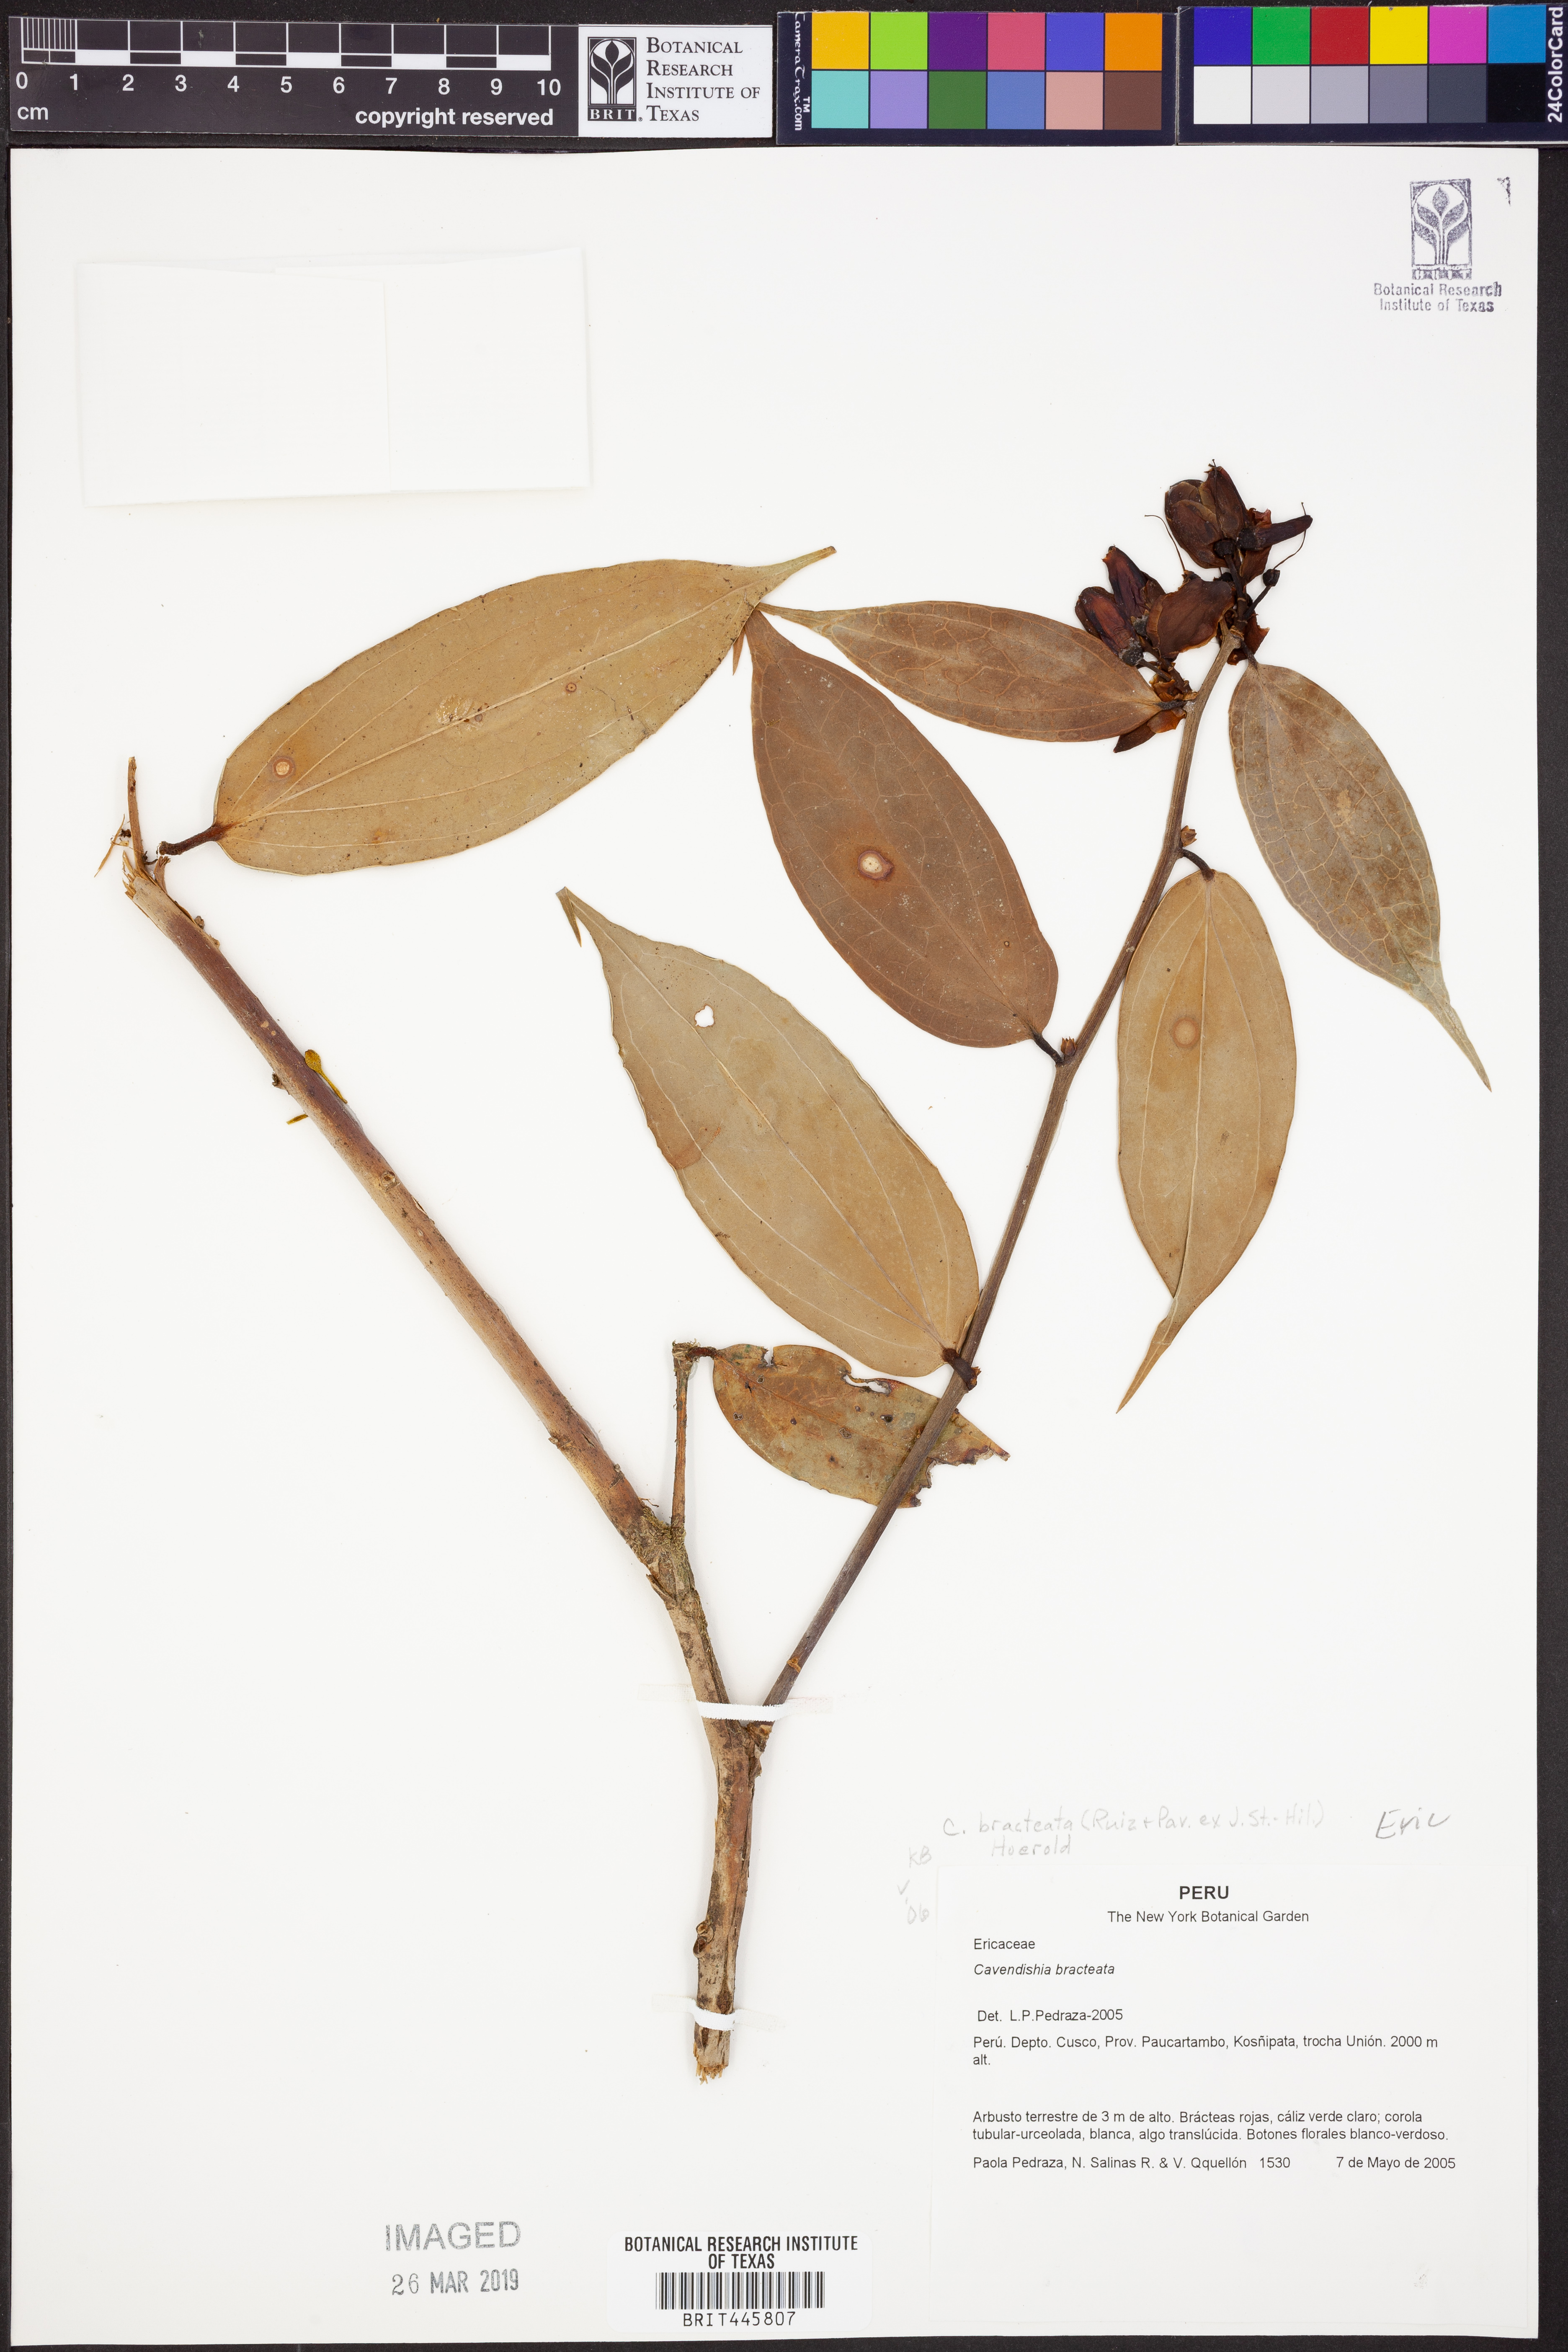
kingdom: Plantae
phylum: Tracheophyta
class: Magnoliopsida
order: Ericales
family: Ericaceae
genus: Cavendishia
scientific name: Cavendishia bracteata
